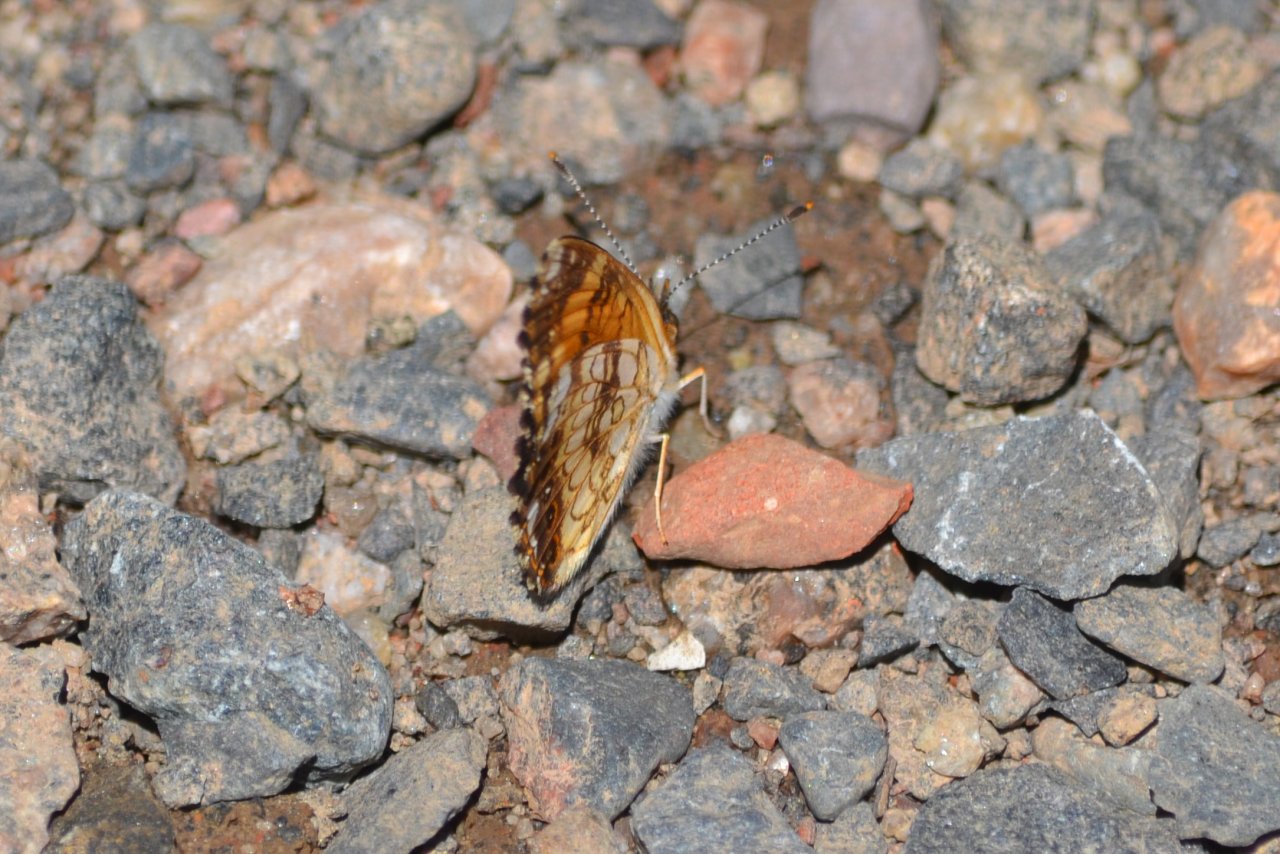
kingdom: Animalia
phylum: Arthropoda
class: Insecta
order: Lepidoptera
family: Nymphalidae
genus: Chlosyne
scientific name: Chlosyne nycteis
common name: Silvery Checkerspot
